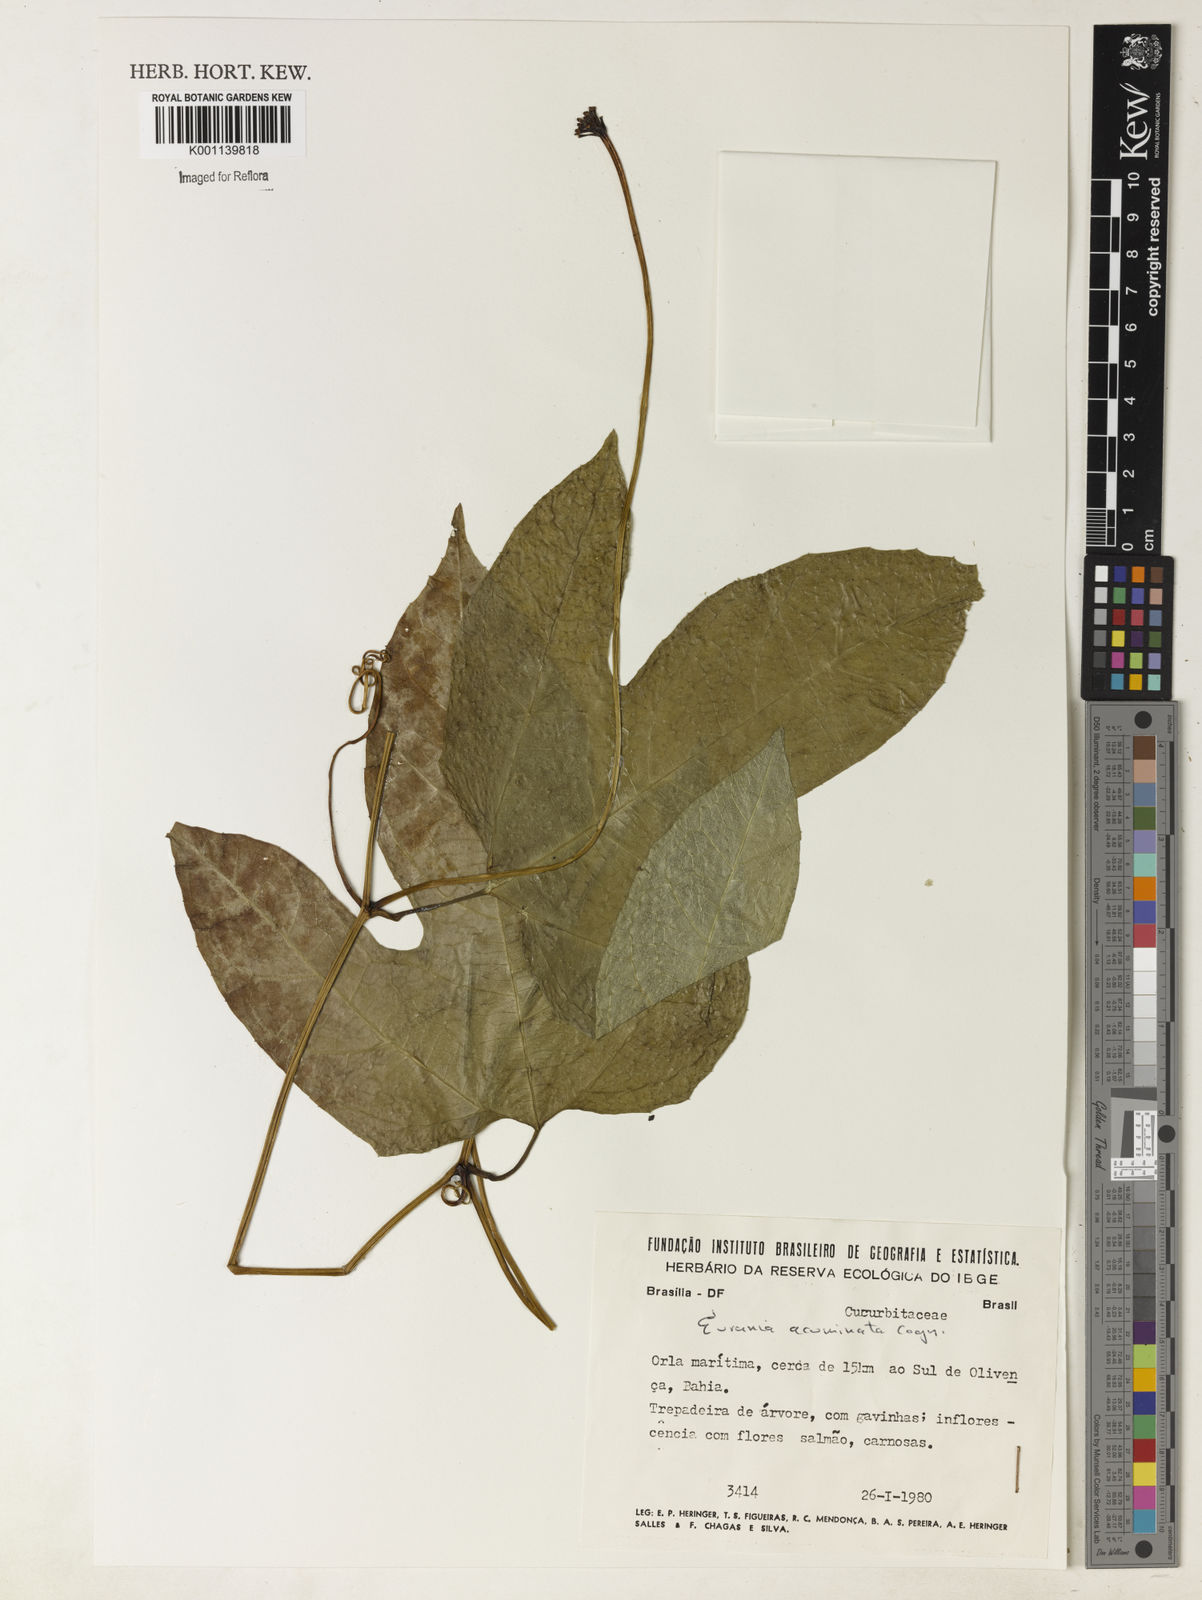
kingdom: Plantae
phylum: Tracheophyta
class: Magnoliopsida
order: Cucurbitales
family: Cucurbitaceae
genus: Gurania
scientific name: Gurania acuminata
